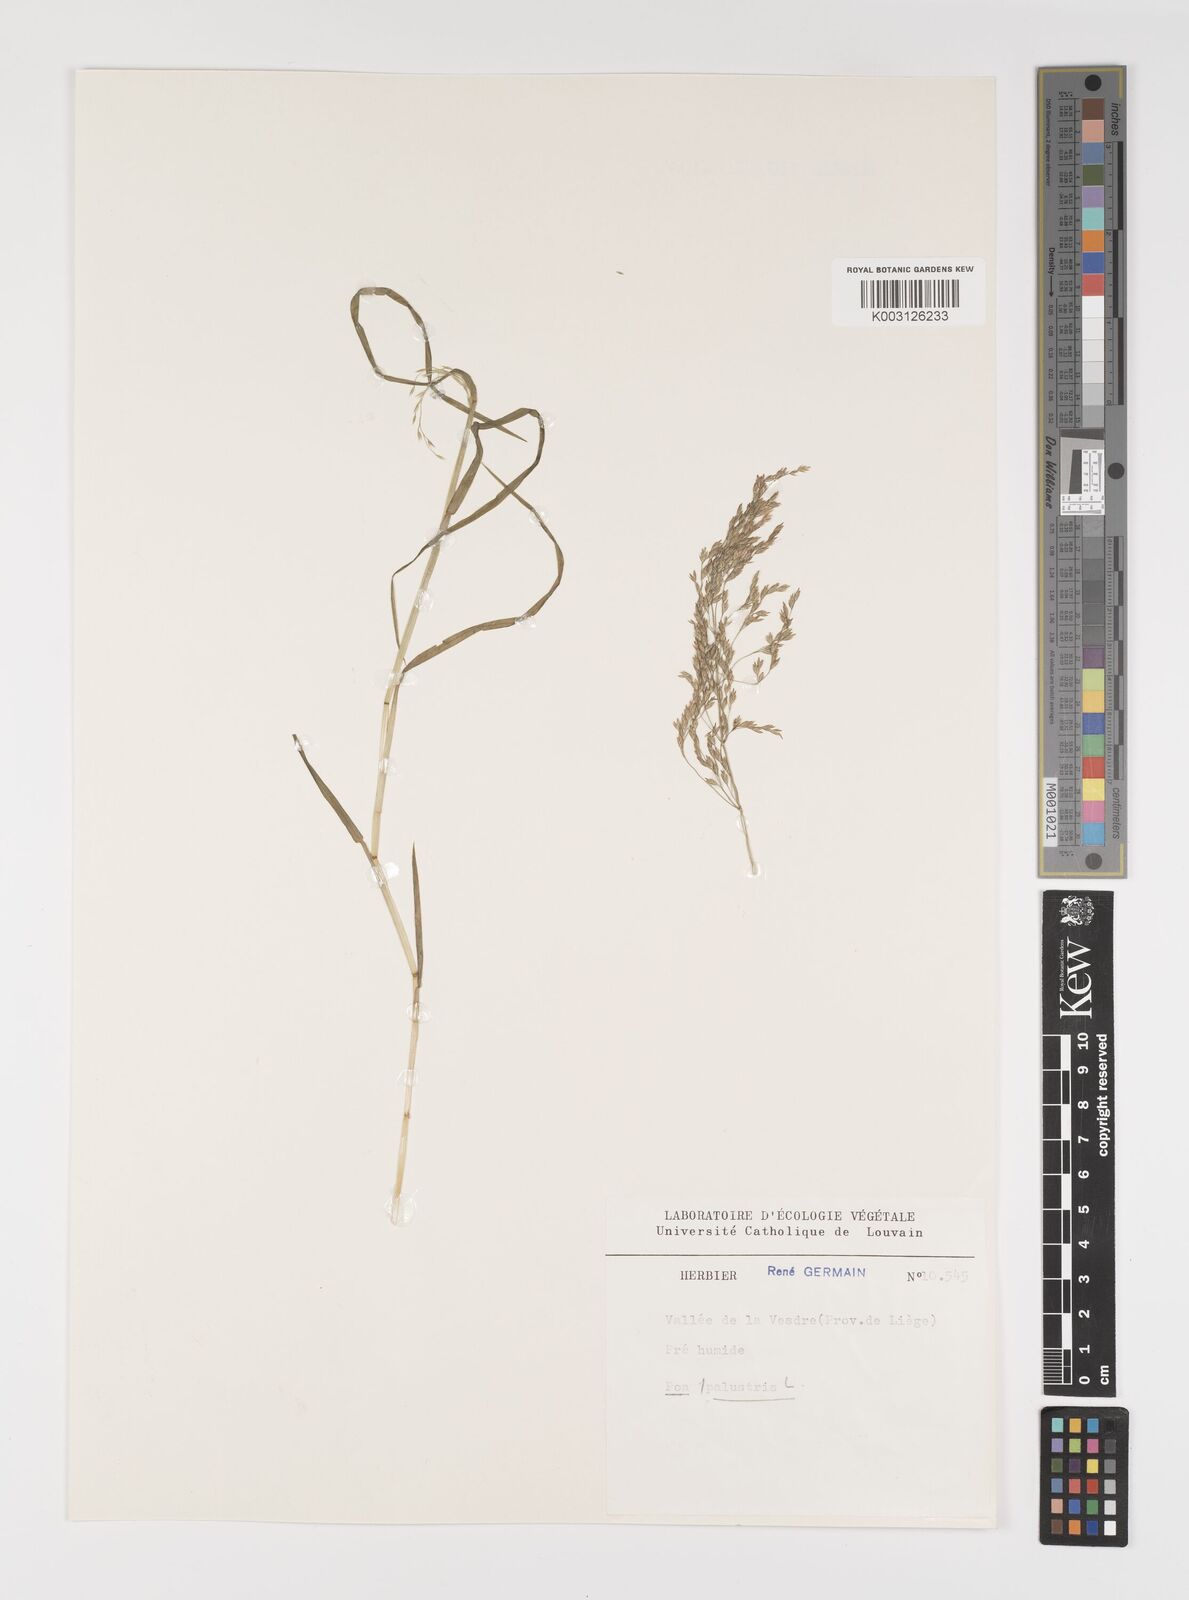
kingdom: Plantae
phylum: Tracheophyta
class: Liliopsida
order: Poales
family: Poaceae
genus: Poa
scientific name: Poa palustris
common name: Swamp meadow-grass
